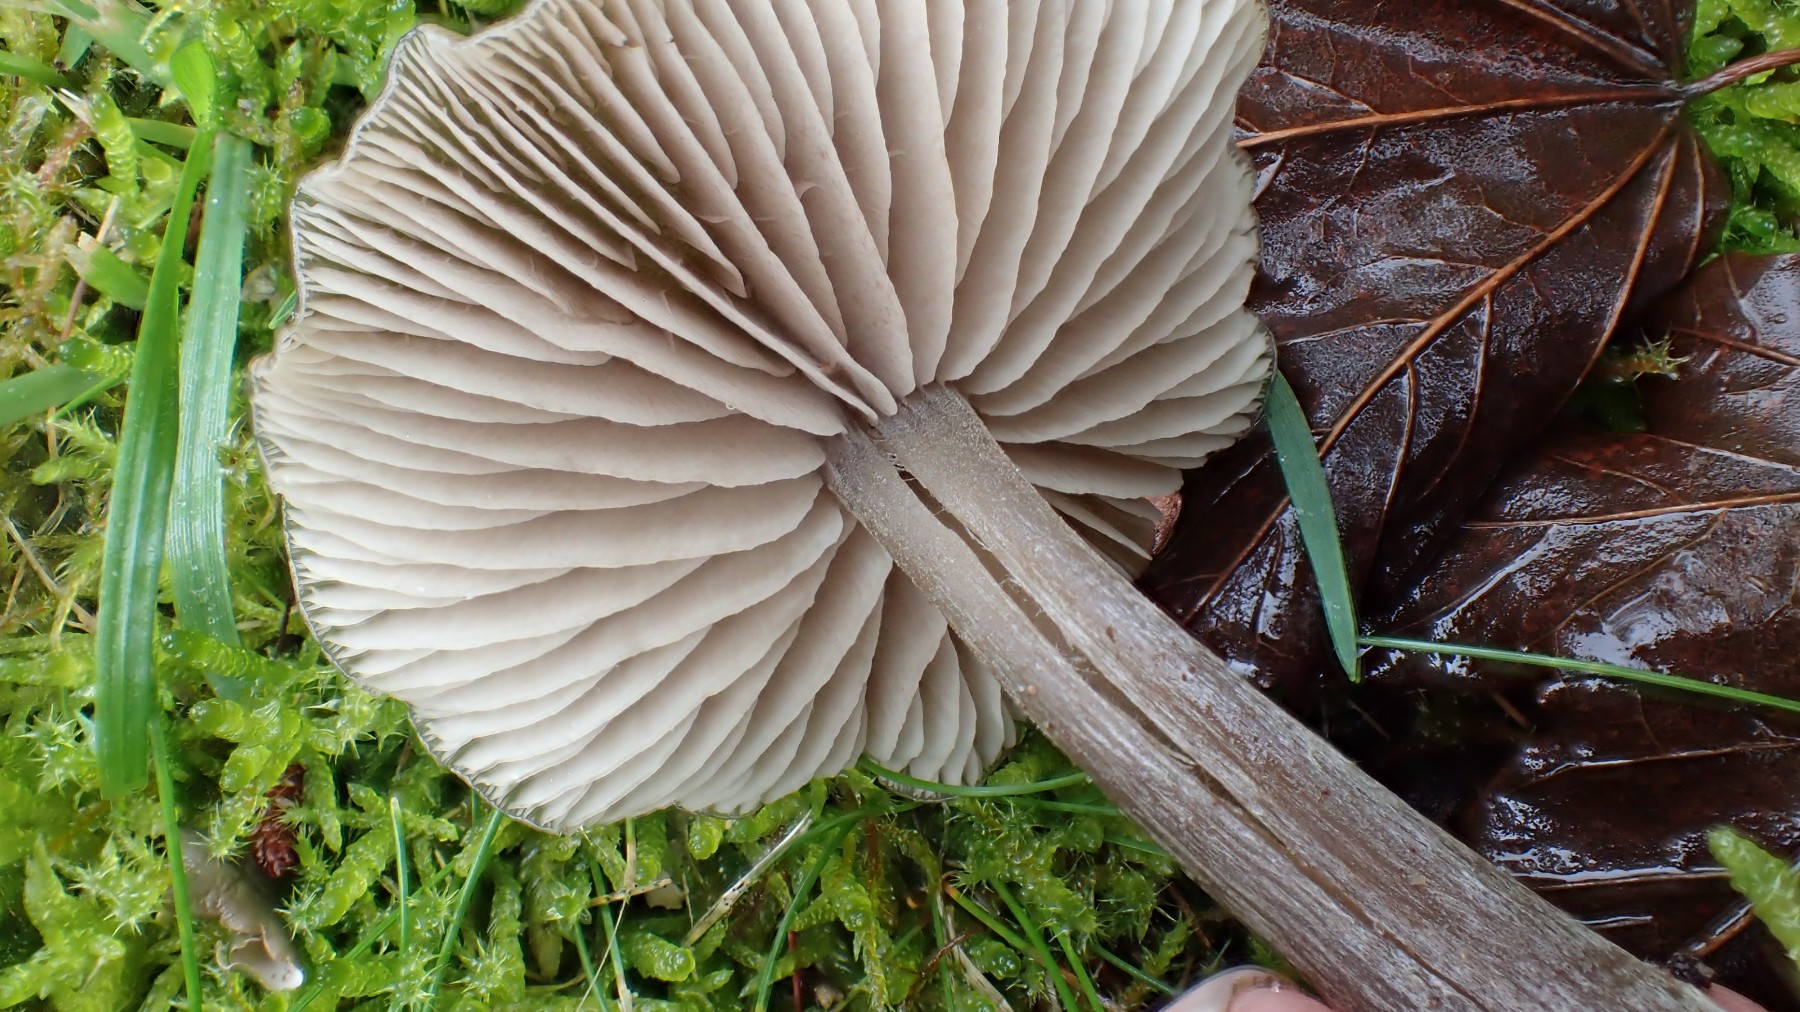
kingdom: Fungi
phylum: Basidiomycota
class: Agaricomycetes
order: Agaricales
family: Entolomataceae
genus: Entoloma
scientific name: Entoloma
